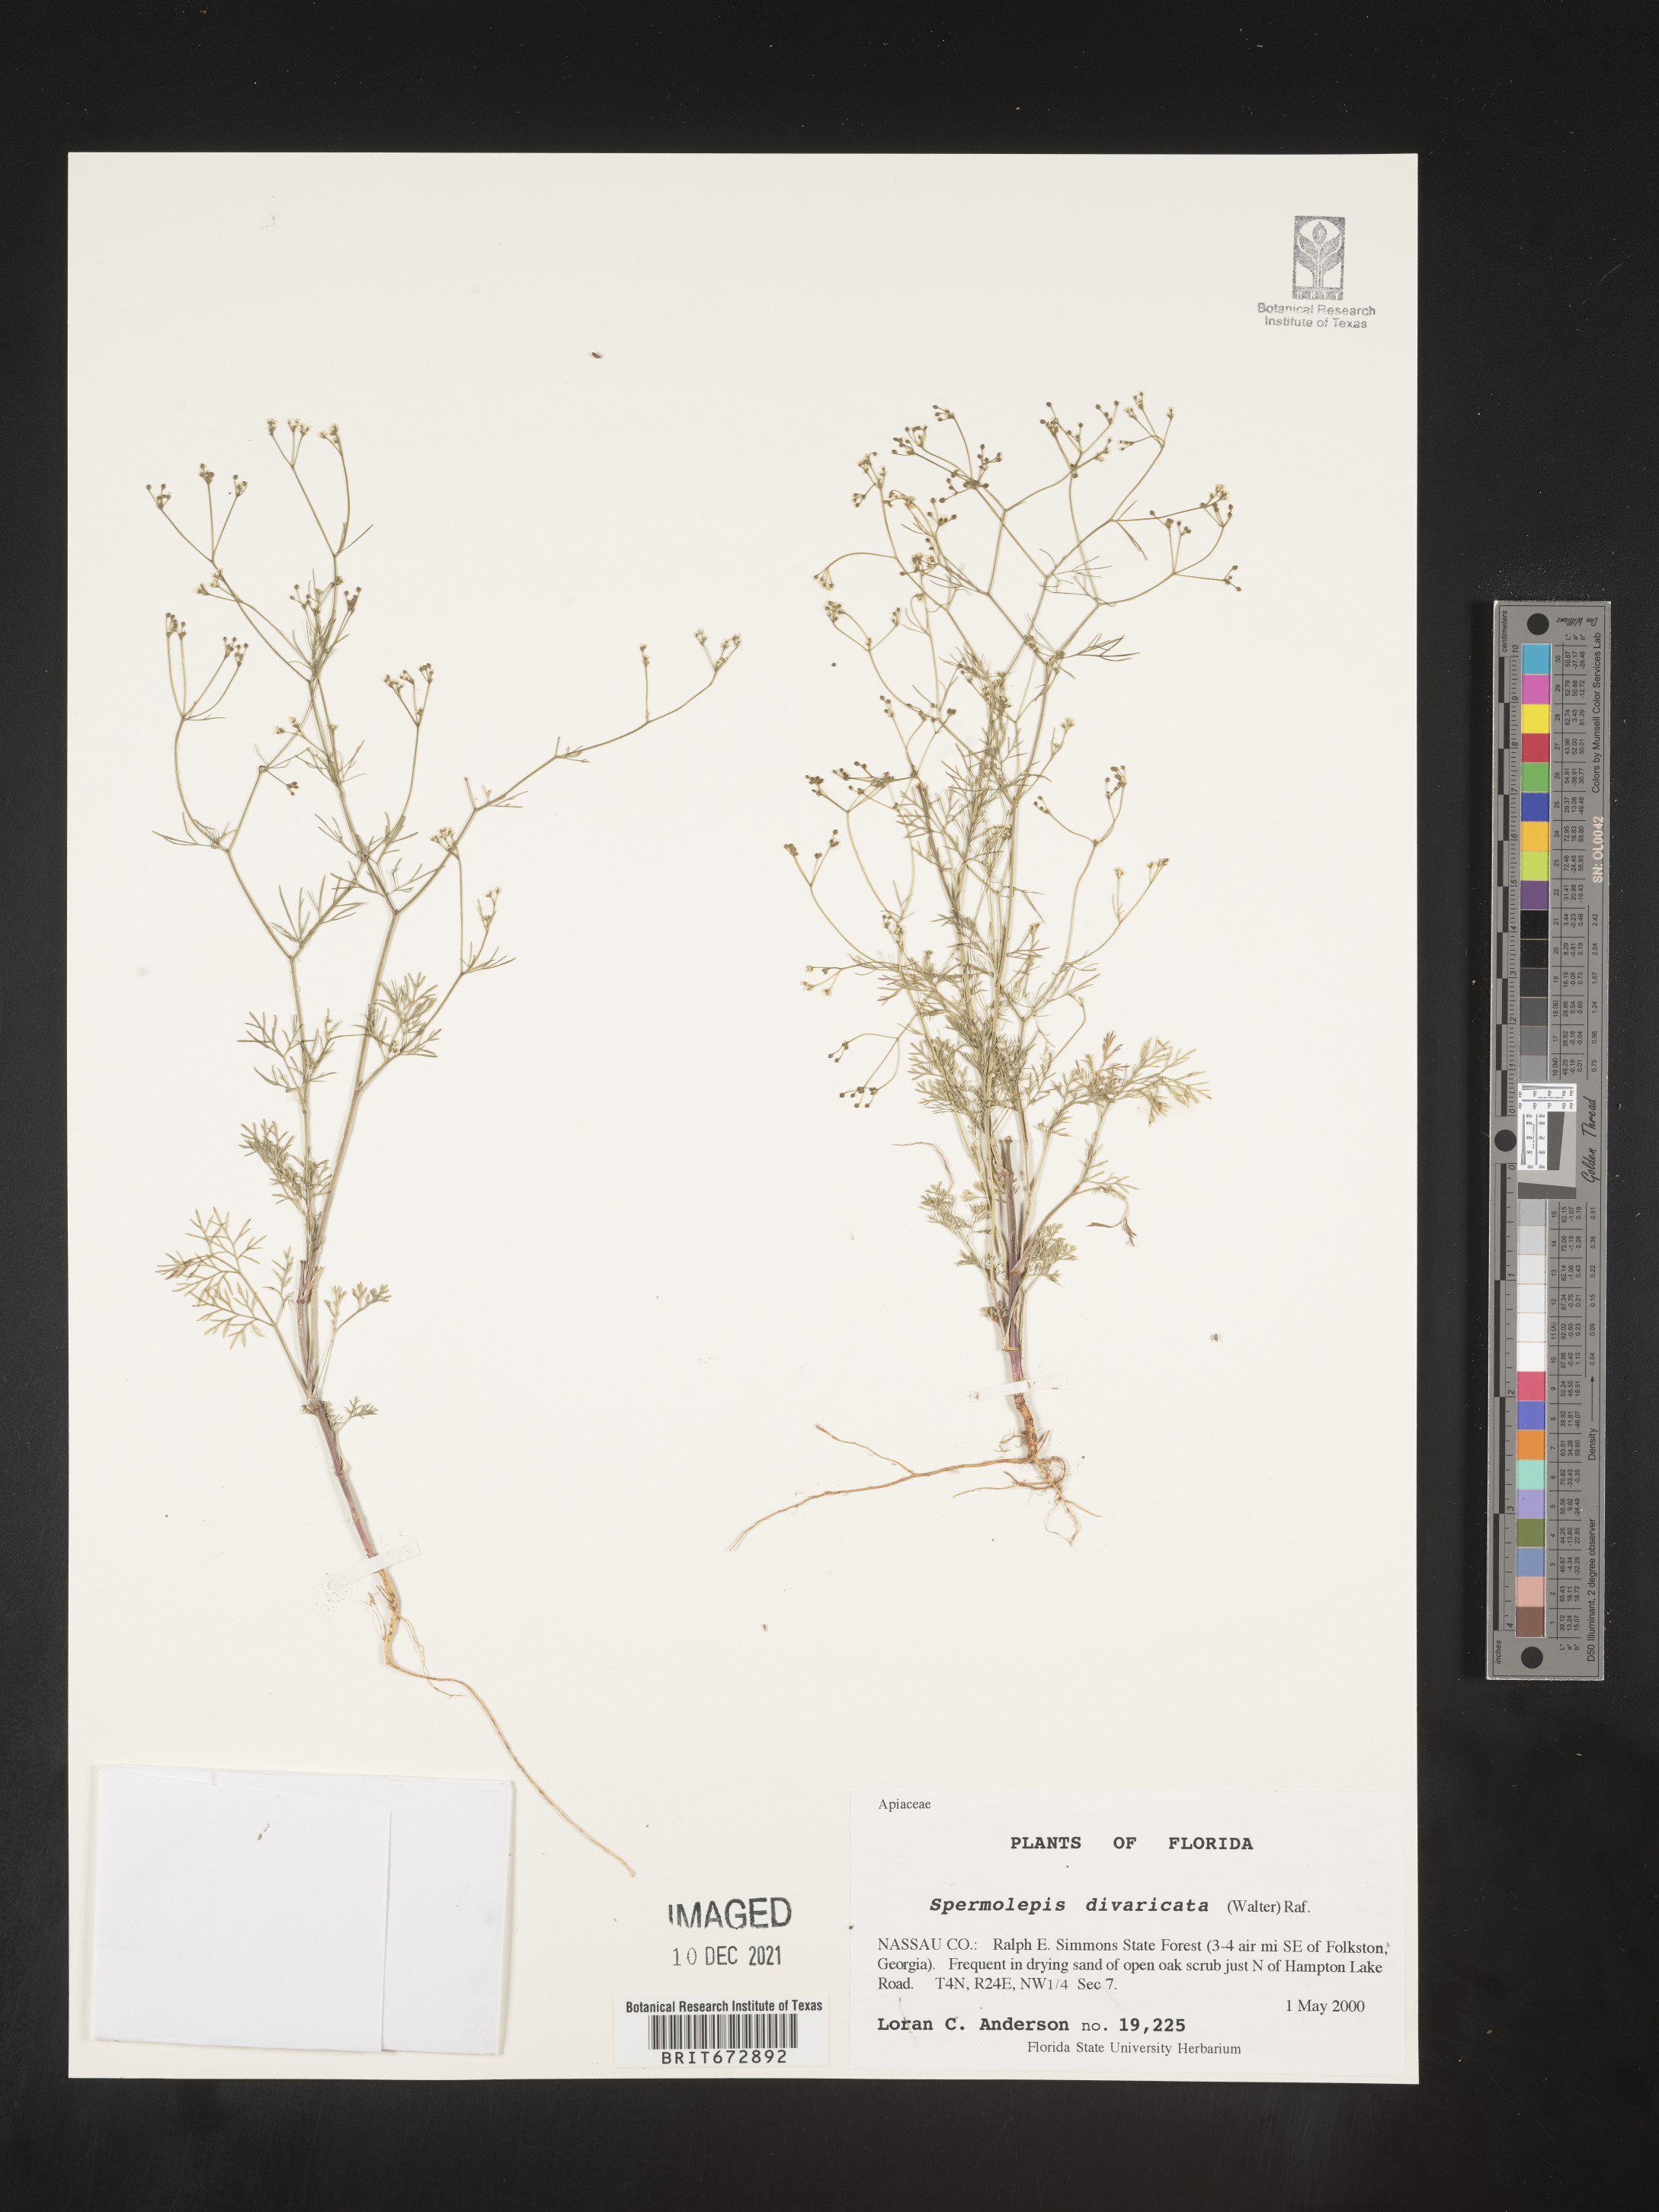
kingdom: Plantae
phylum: Tracheophyta
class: Magnoliopsida
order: Apiales
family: Apiaceae
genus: Spermolepis
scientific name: Spermolepis divaricata
